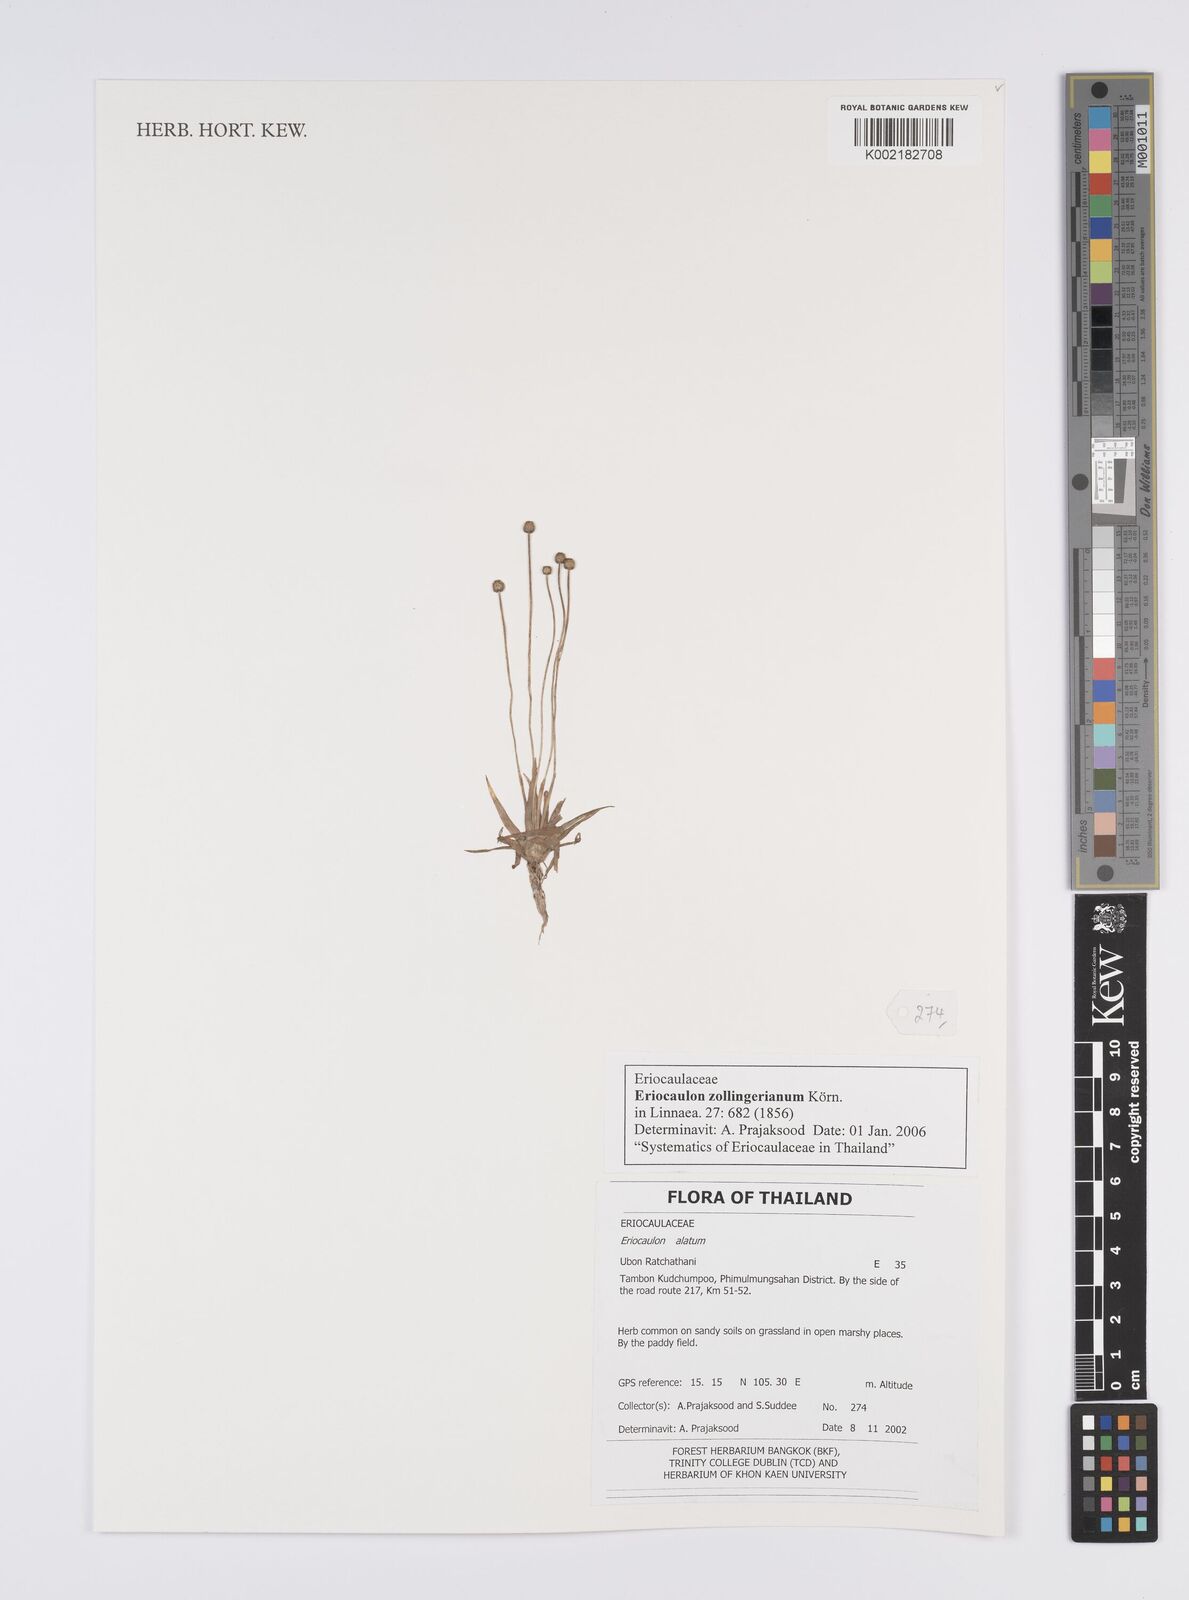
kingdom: Plantae
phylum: Tracheophyta
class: Liliopsida
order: Poales
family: Eriocaulaceae
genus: Eriocaulon
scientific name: Eriocaulon zollingerianum
